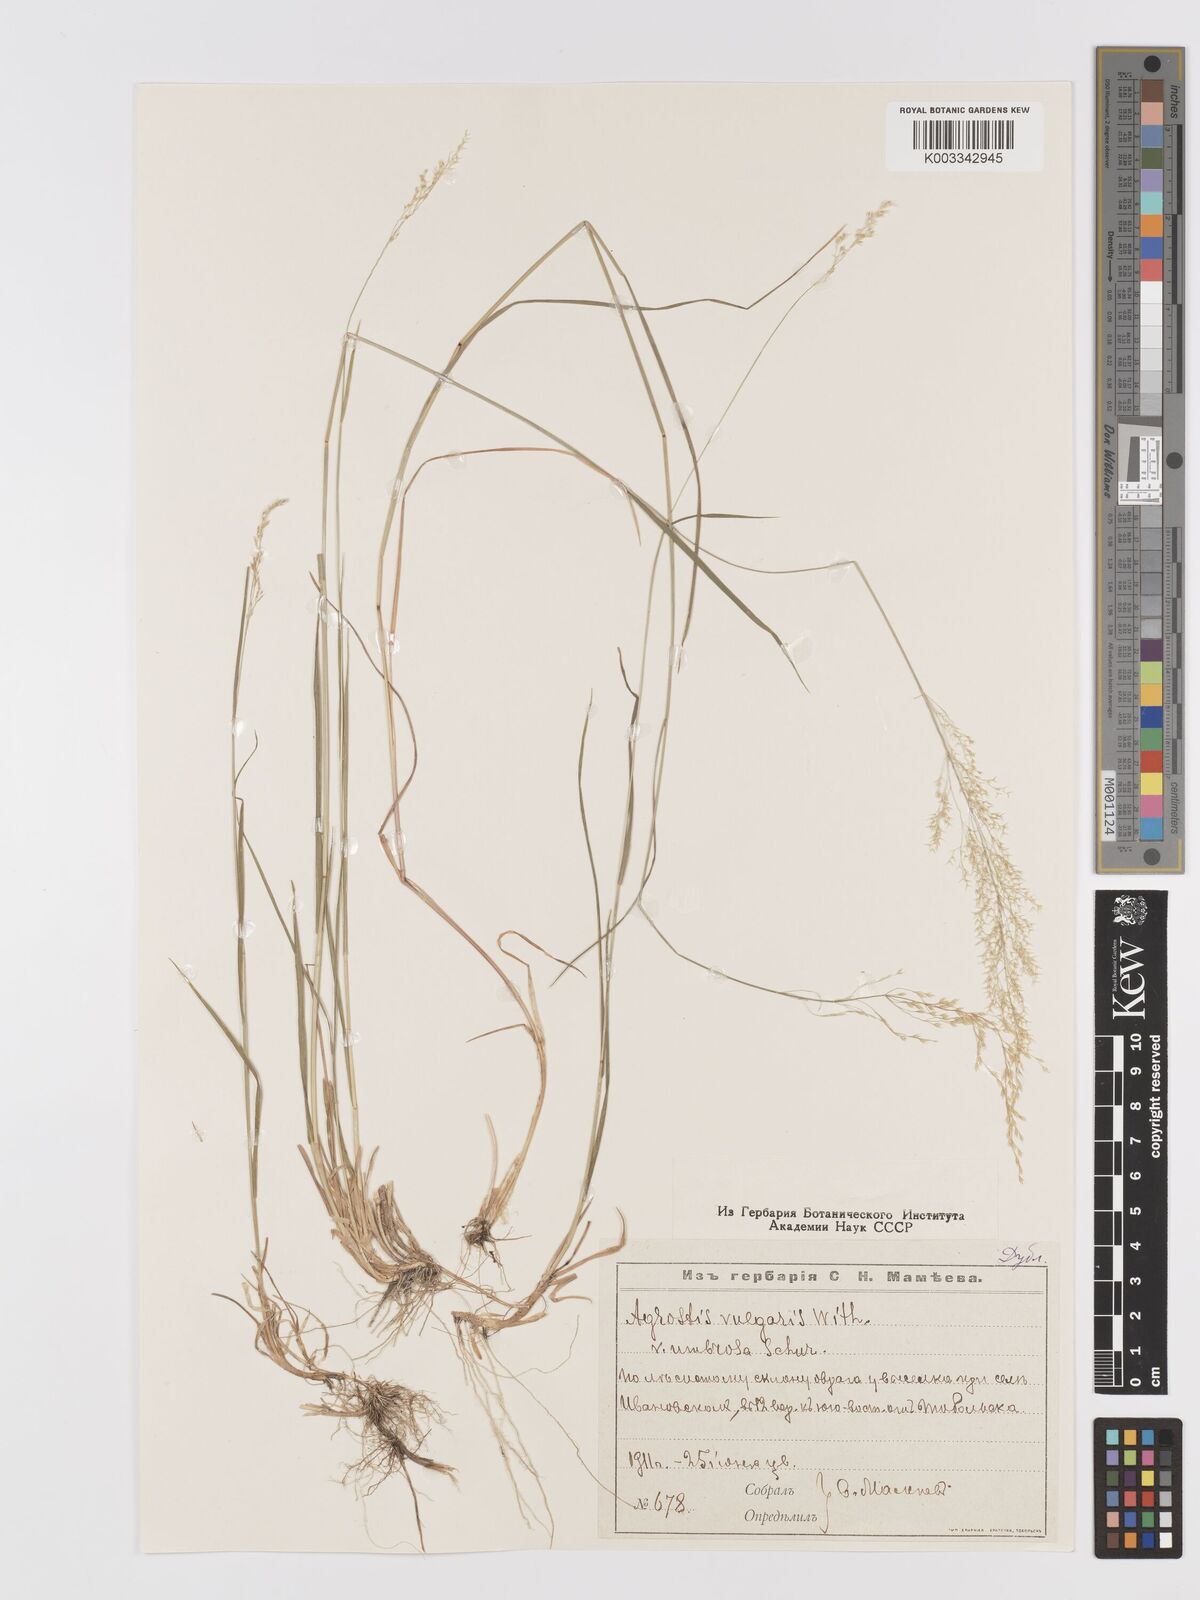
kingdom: Plantae
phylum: Tracheophyta
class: Liliopsida
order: Poales
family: Poaceae
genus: Agrostis
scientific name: Agrostis capillaris
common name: Colonial bentgrass
